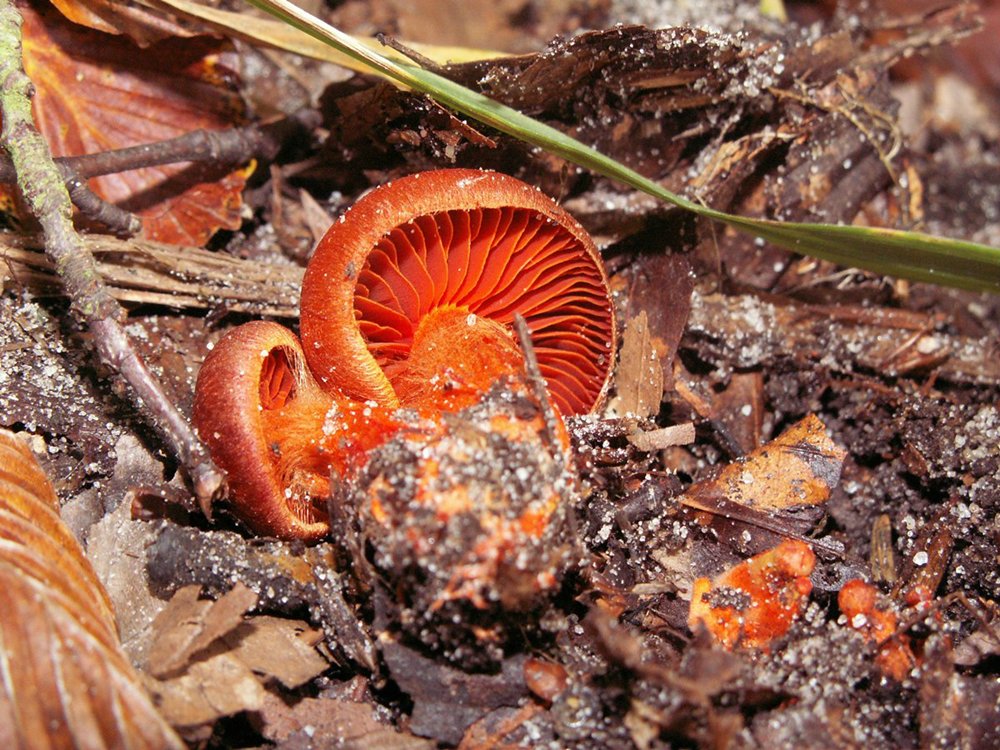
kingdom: Fungi
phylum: Basidiomycota
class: Agaricomycetes
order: Agaricales
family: Cortinariaceae
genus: Cortinarius
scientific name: Cortinarius cinnabarinus
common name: cinnober-slørhat
